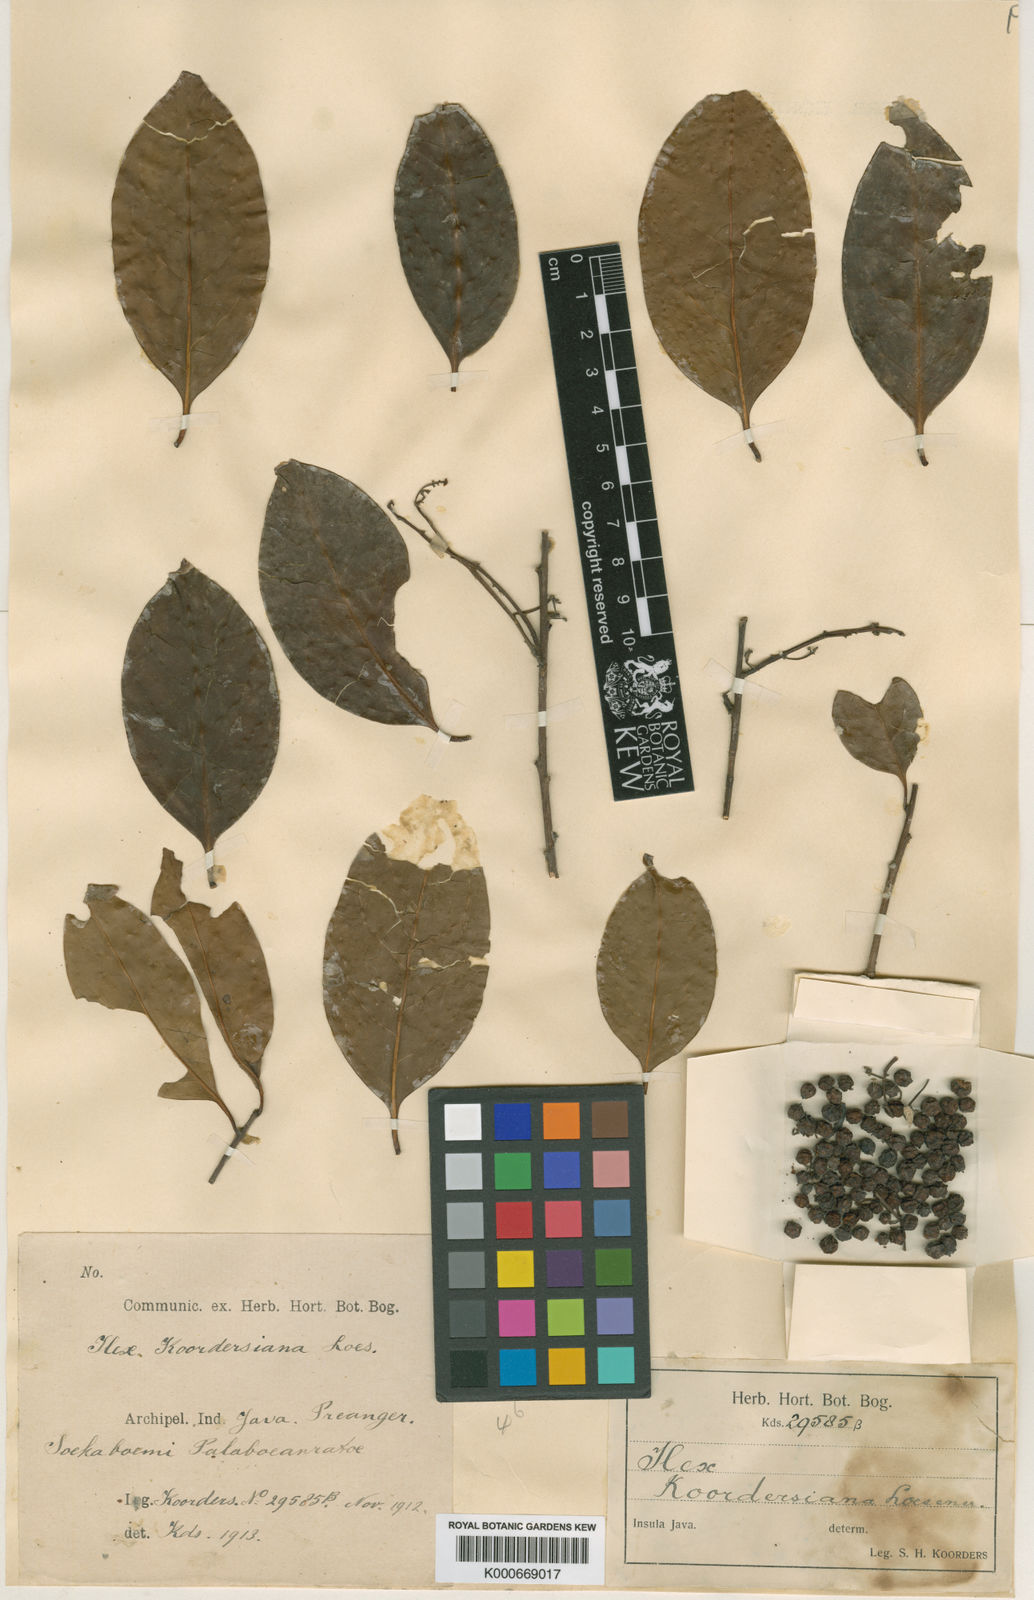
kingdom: Plantae
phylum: Tracheophyta
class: Magnoliopsida
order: Aquifoliales
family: Aquifoliaceae
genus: Ilex
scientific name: Ilex koordersiana
